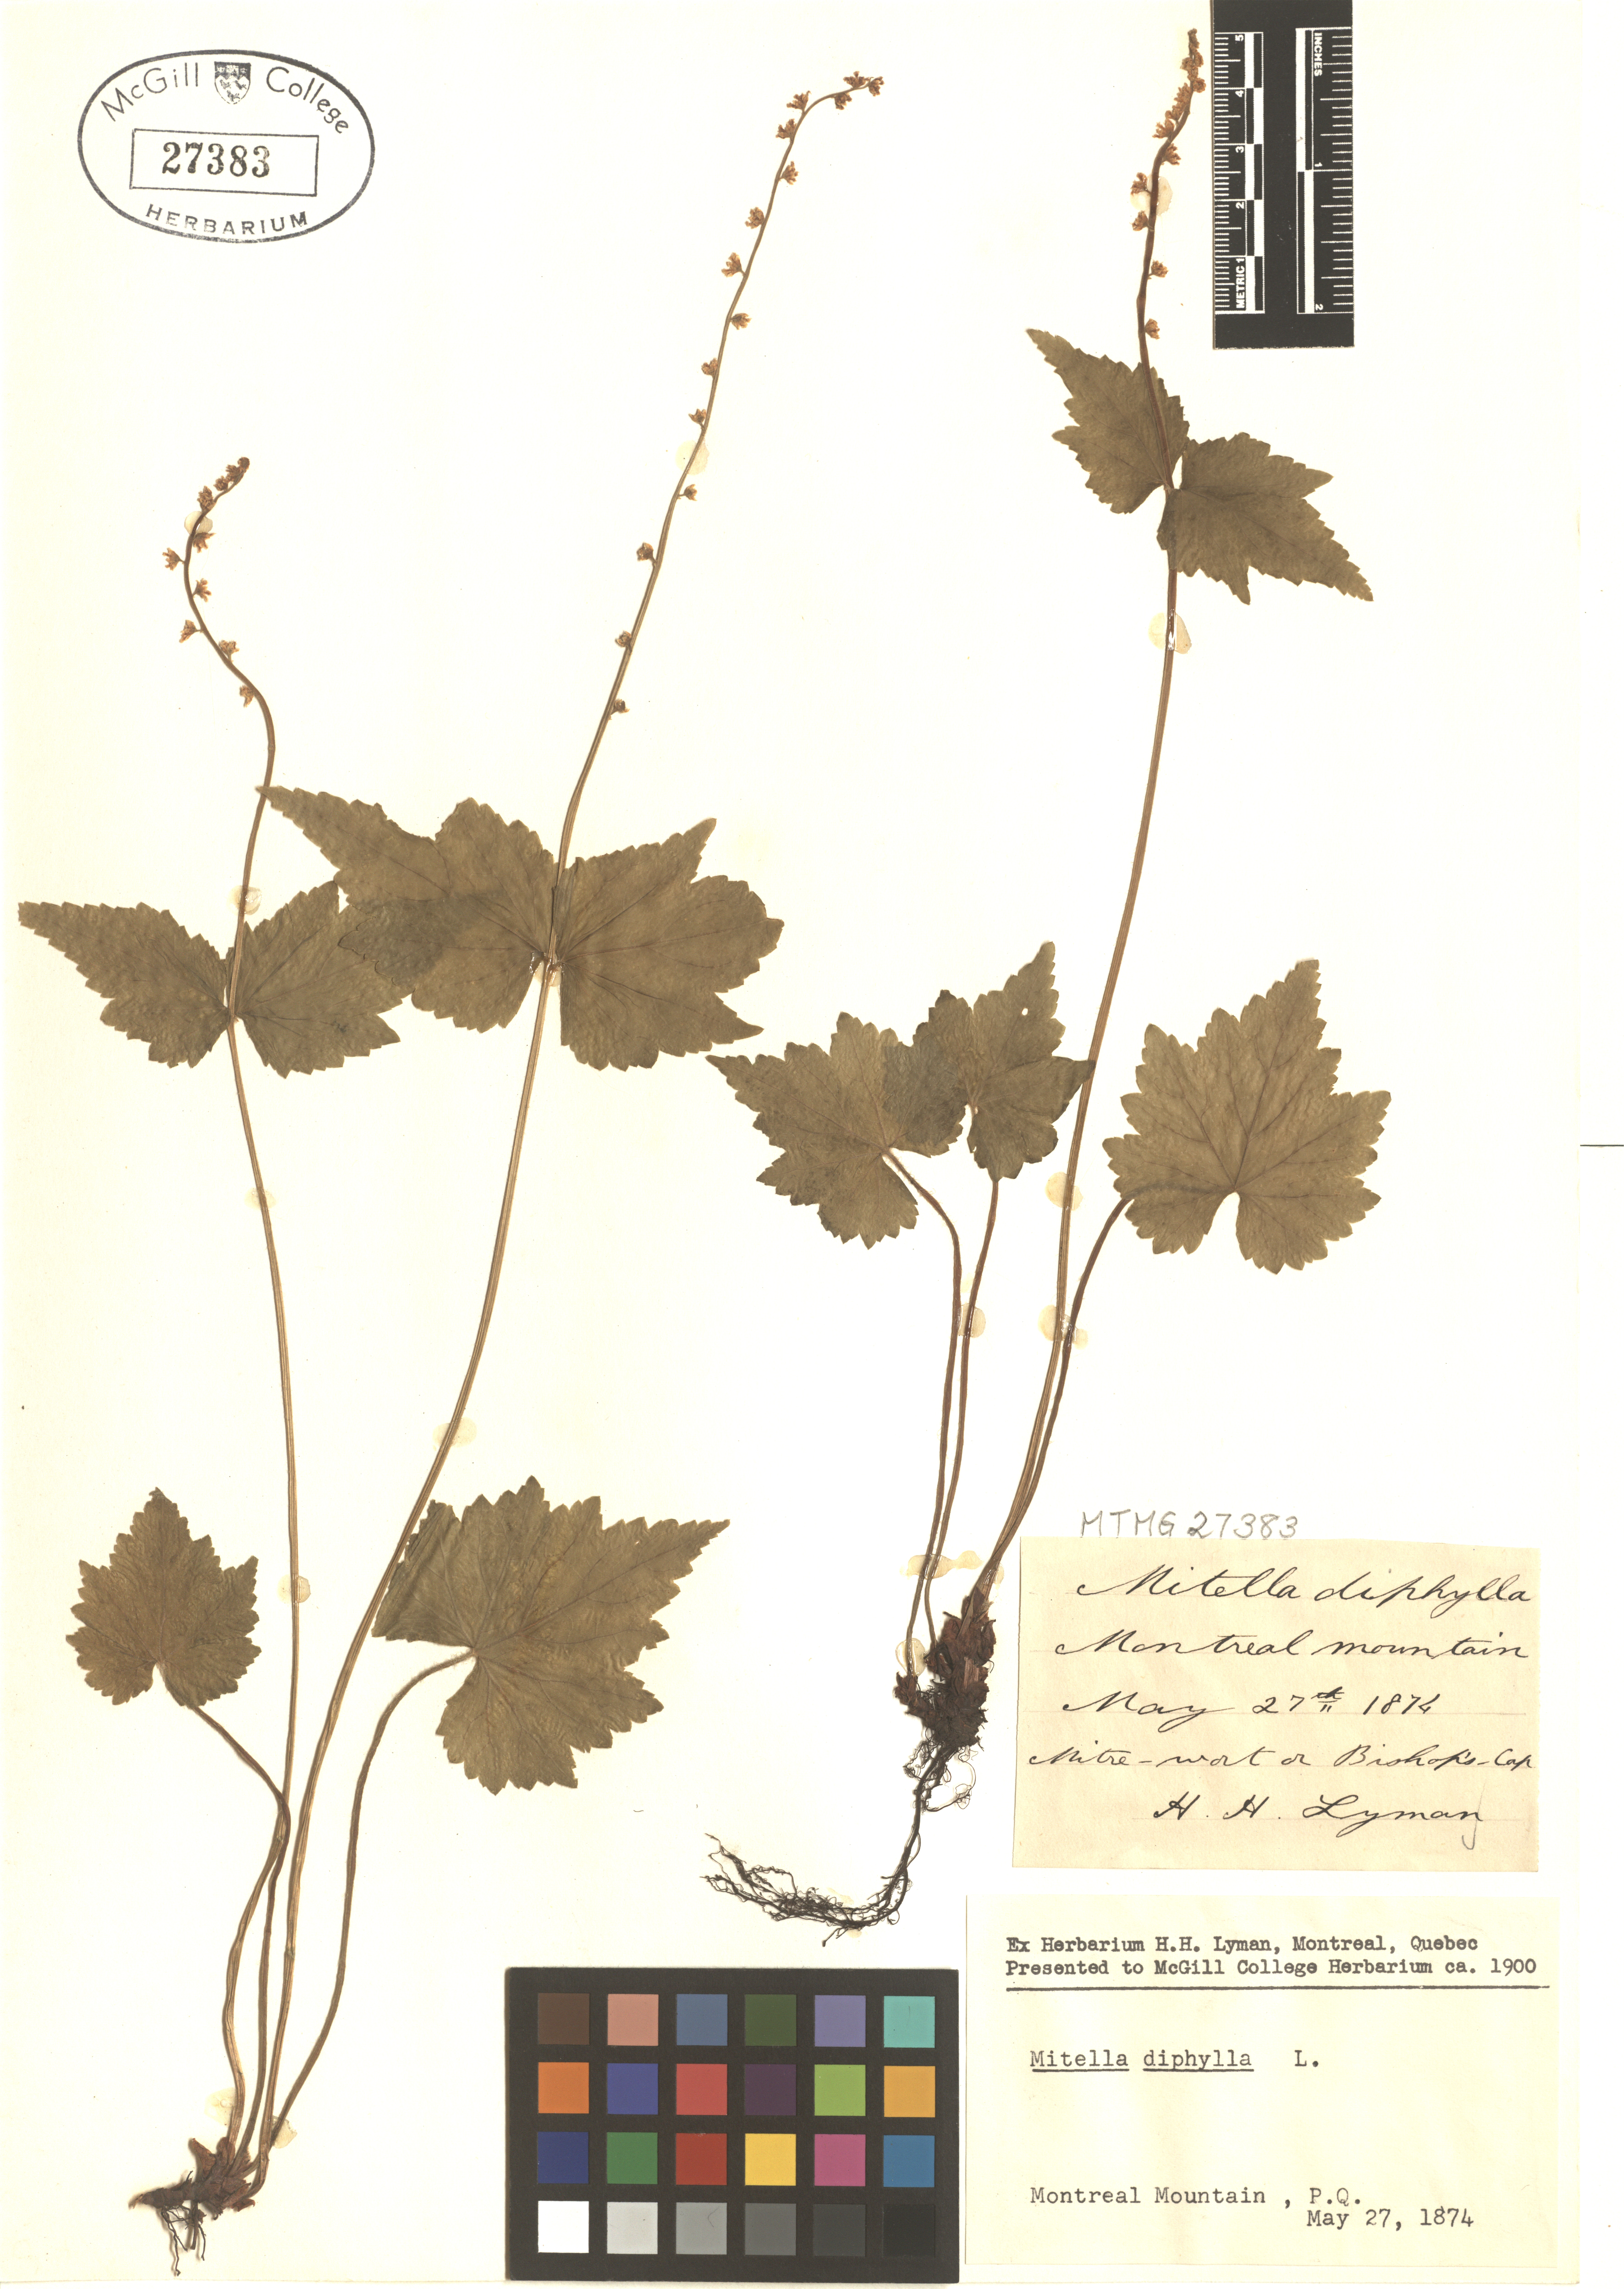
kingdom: Plantae
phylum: Tracheophyta
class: Magnoliopsida
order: Saxifragales
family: Saxifragaceae
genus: Mitella
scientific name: Mitella diphylla
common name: Coolwort
